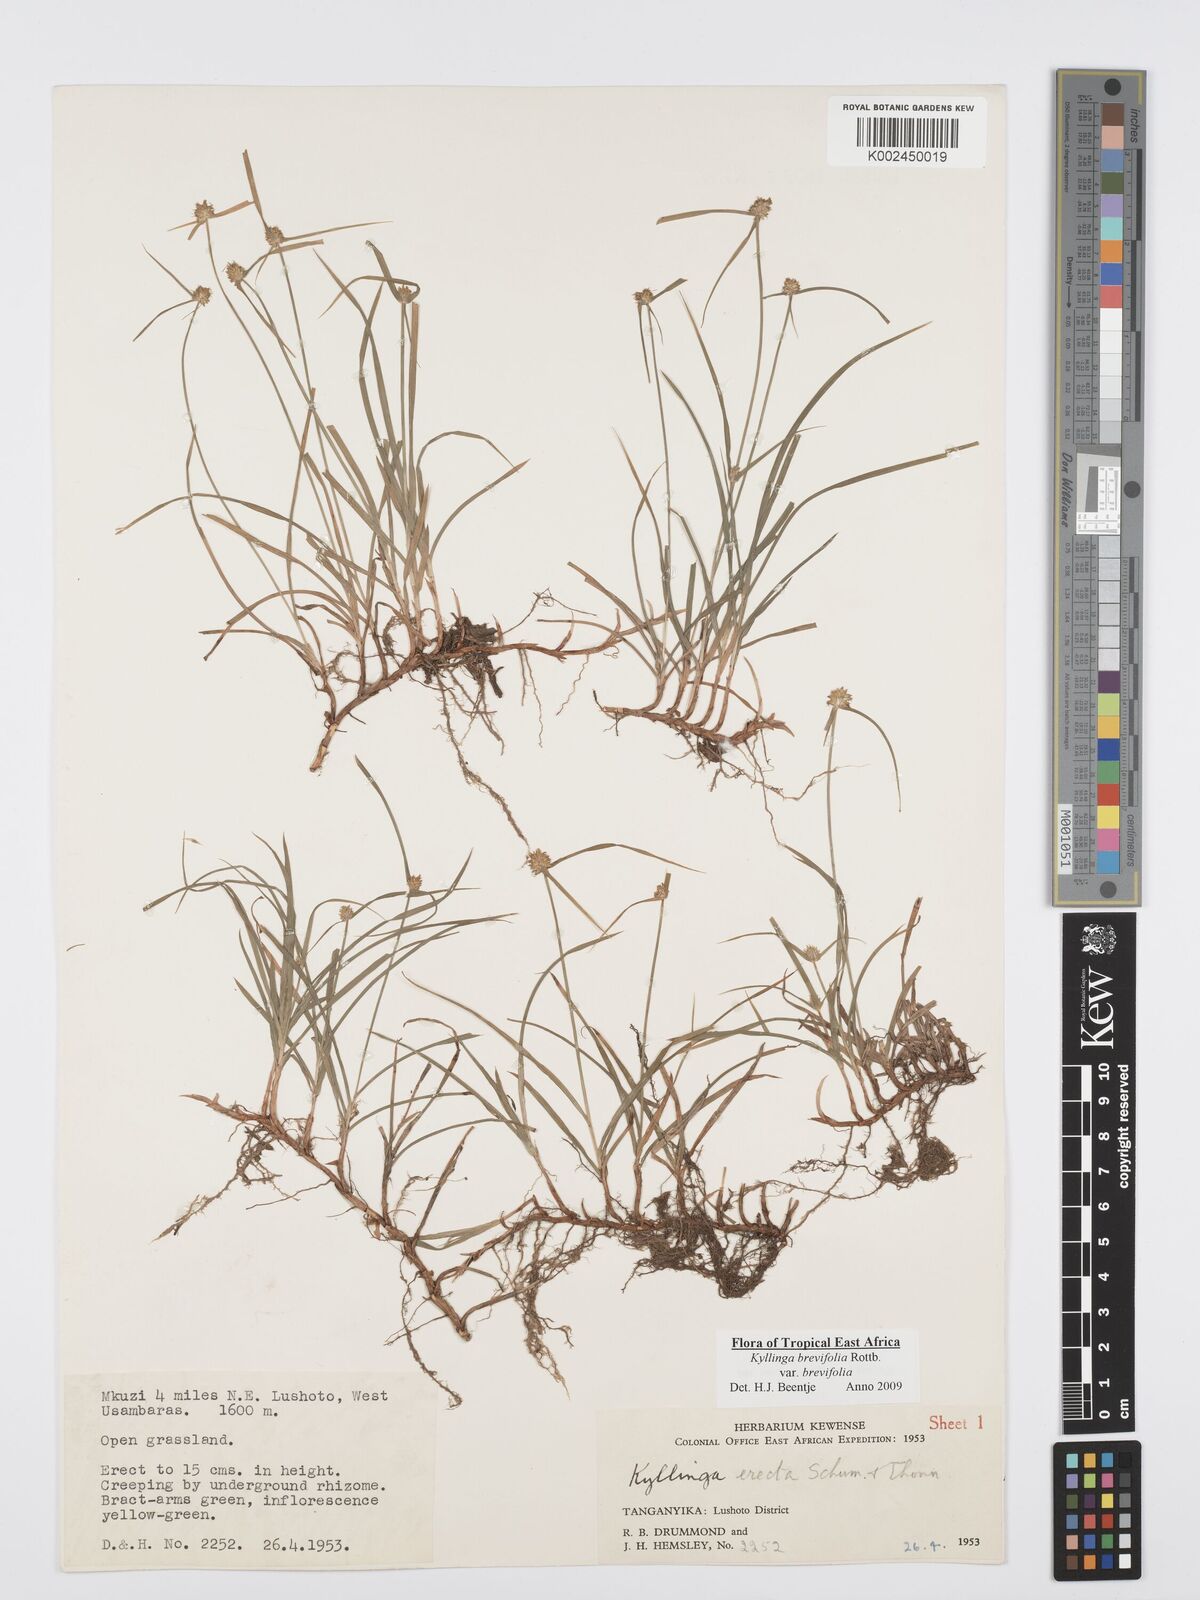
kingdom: Plantae
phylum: Tracheophyta
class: Liliopsida
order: Poales
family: Cyperaceae
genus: Cyperus
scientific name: Cyperus brevifolius
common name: Globe kyllinga
